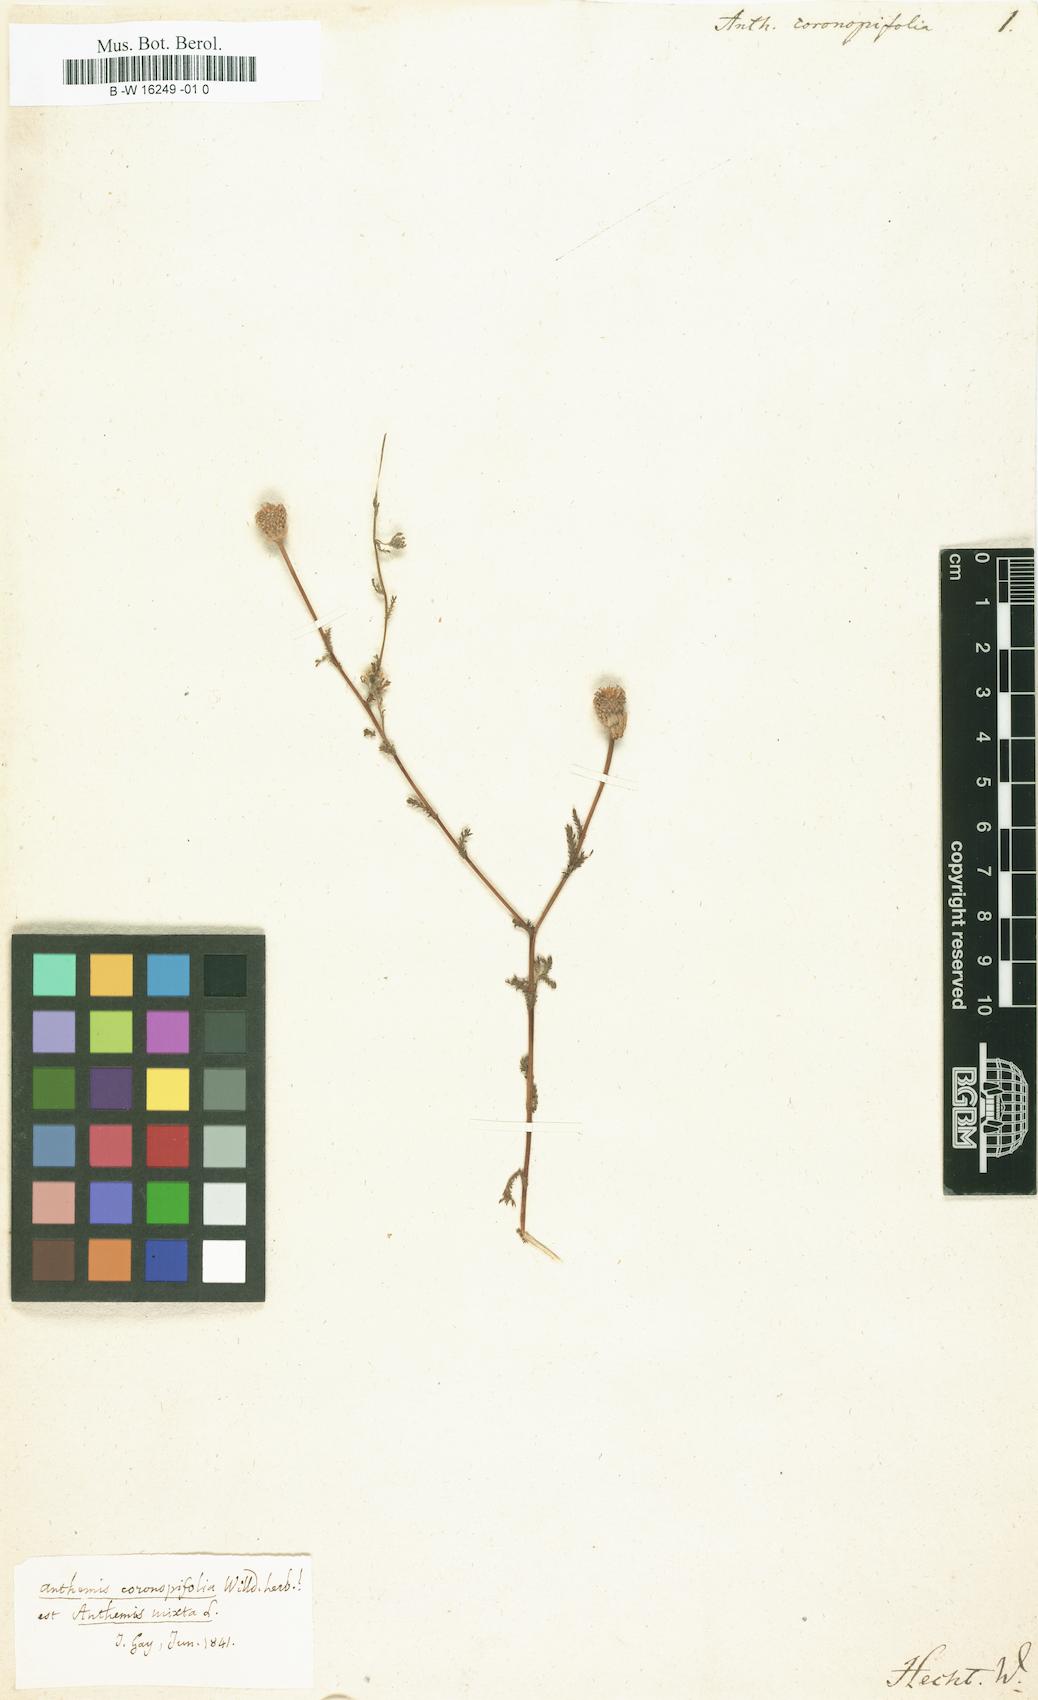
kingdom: Plantae
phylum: Tracheophyta
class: Magnoliopsida
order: Asterales
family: Asteraceae
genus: Anthemis
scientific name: Anthemis coronopifolia
